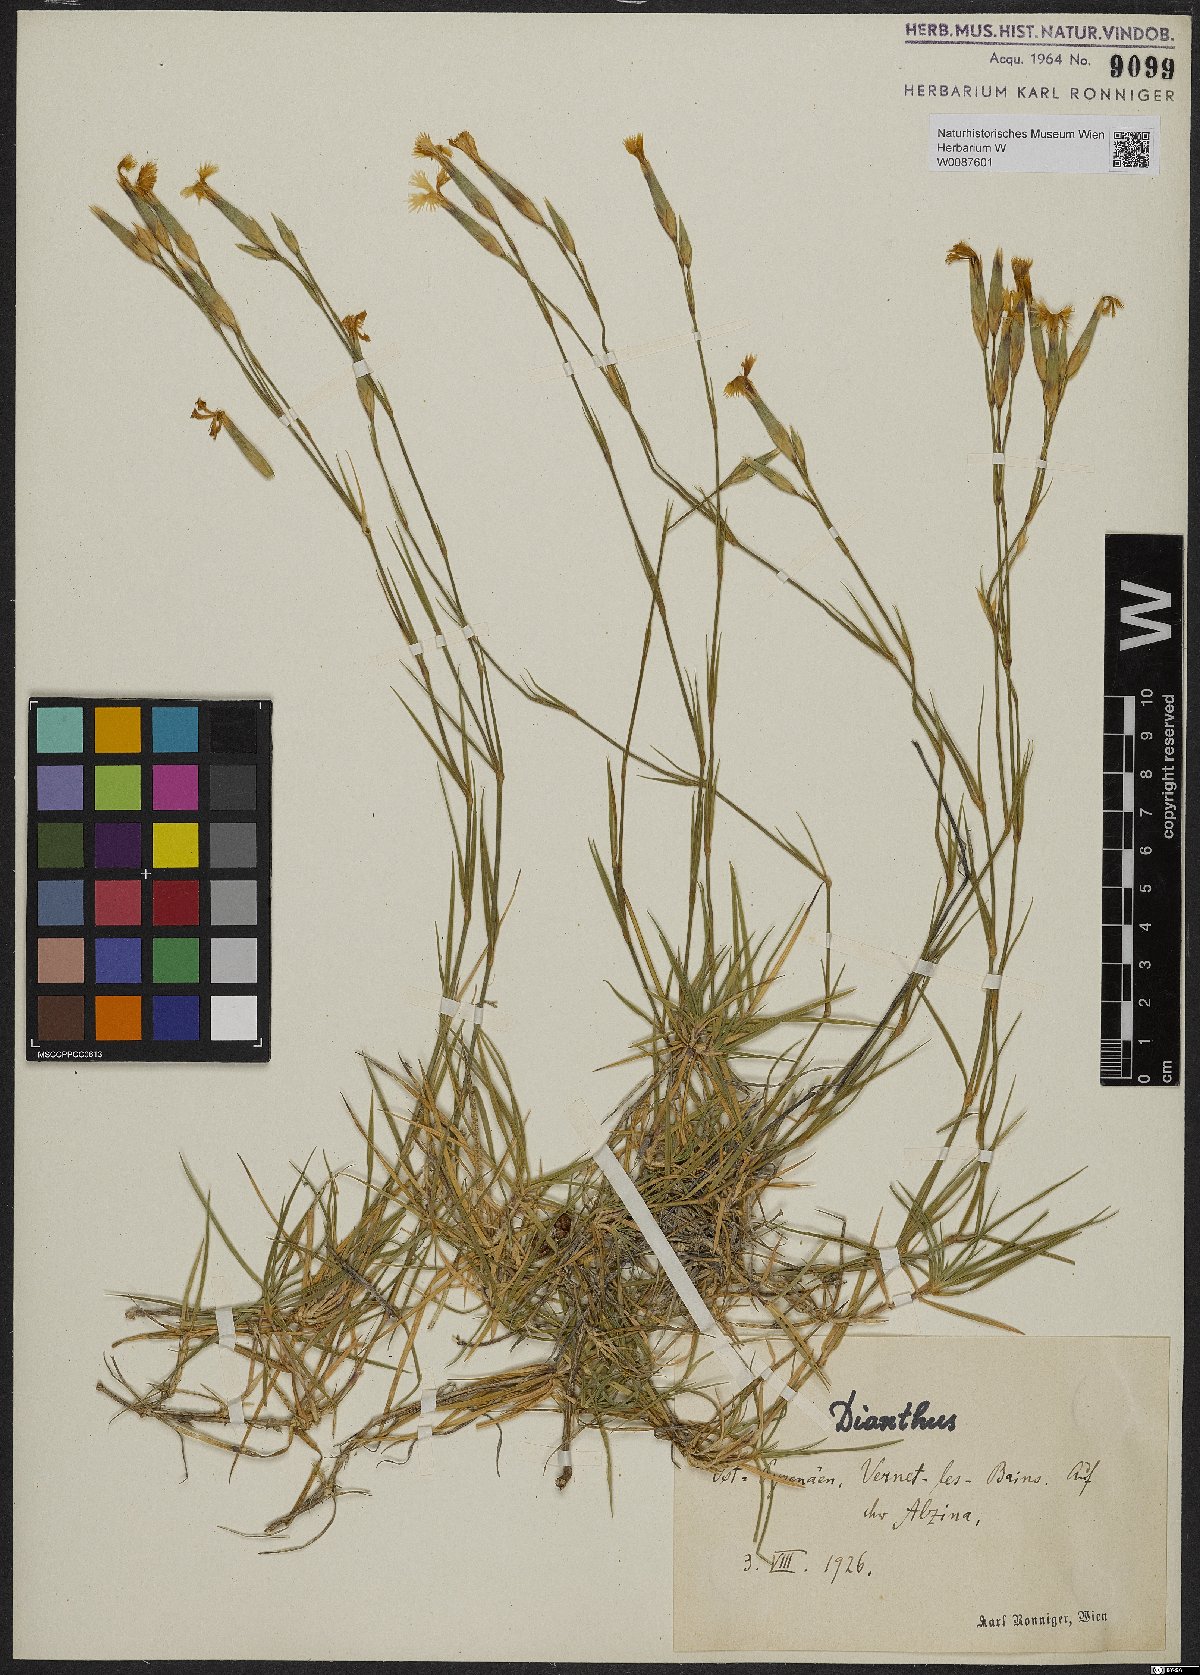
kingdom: Plantae
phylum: Tracheophyta
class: Magnoliopsida
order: Caryophyllales
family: Caryophyllaceae
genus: Dianthus
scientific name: Dianthus
